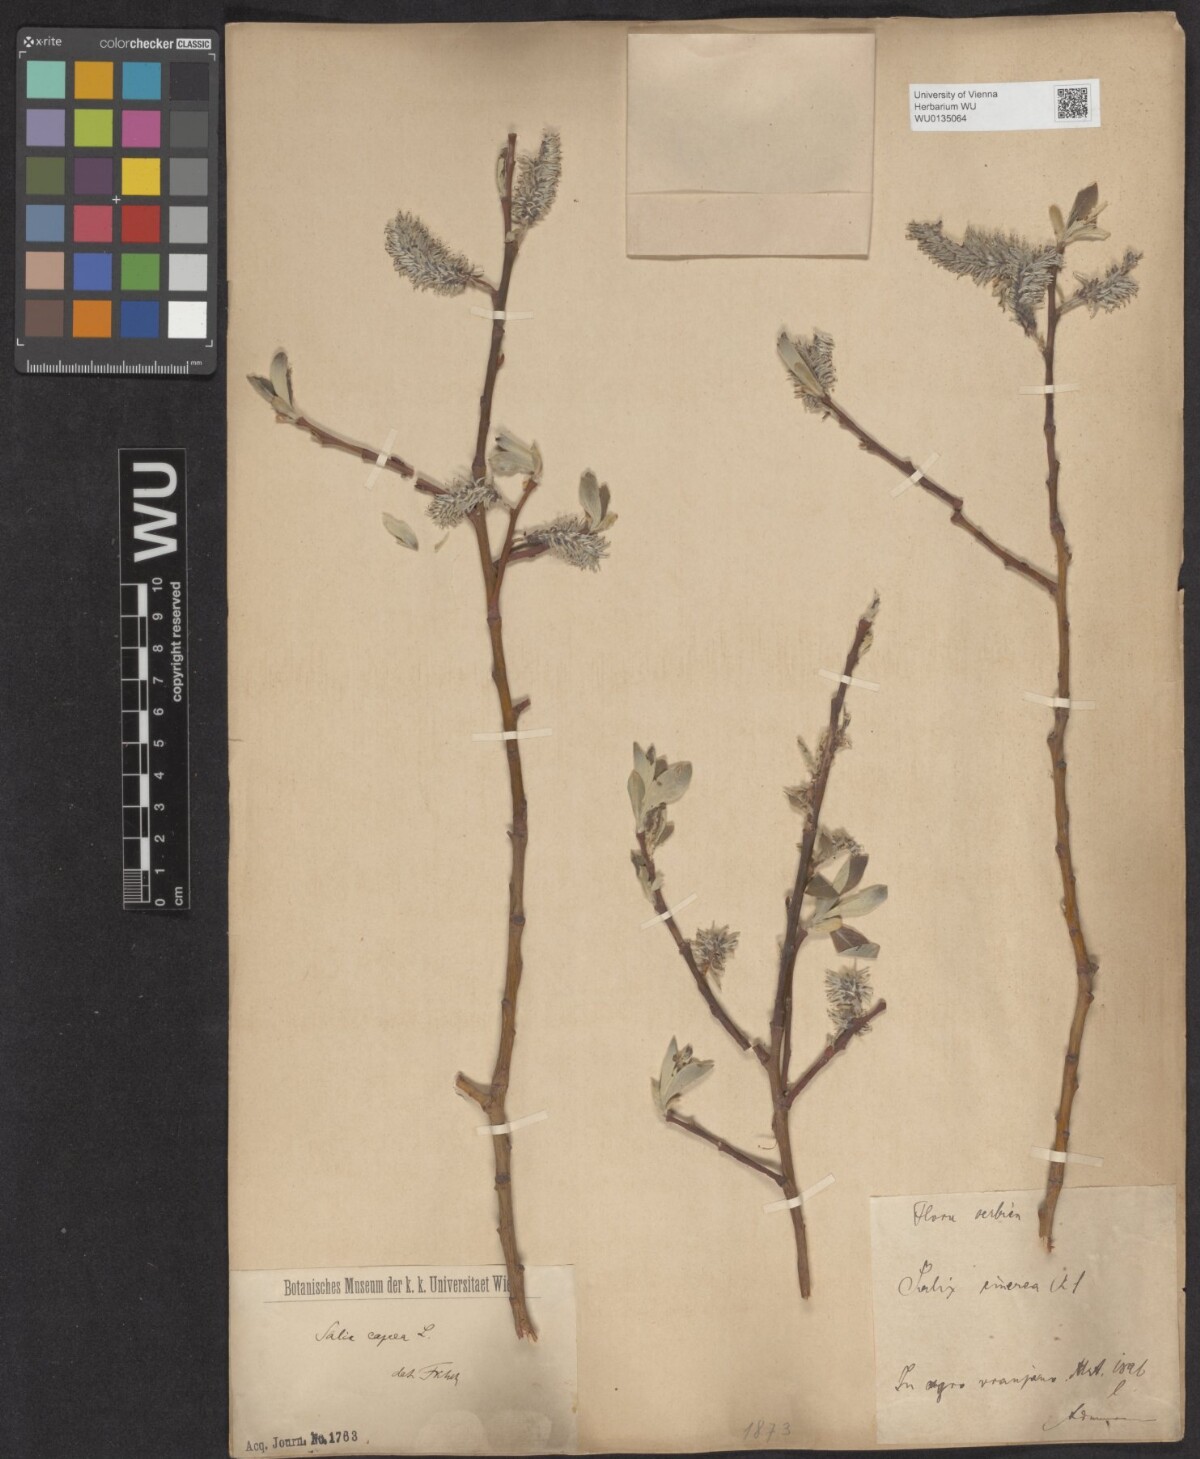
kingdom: Plantae
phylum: Tracheophyta
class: Magnoliopsida
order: Malpighiales
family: Salicaceae
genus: Salix
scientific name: Salix caprea
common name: Goat willow
